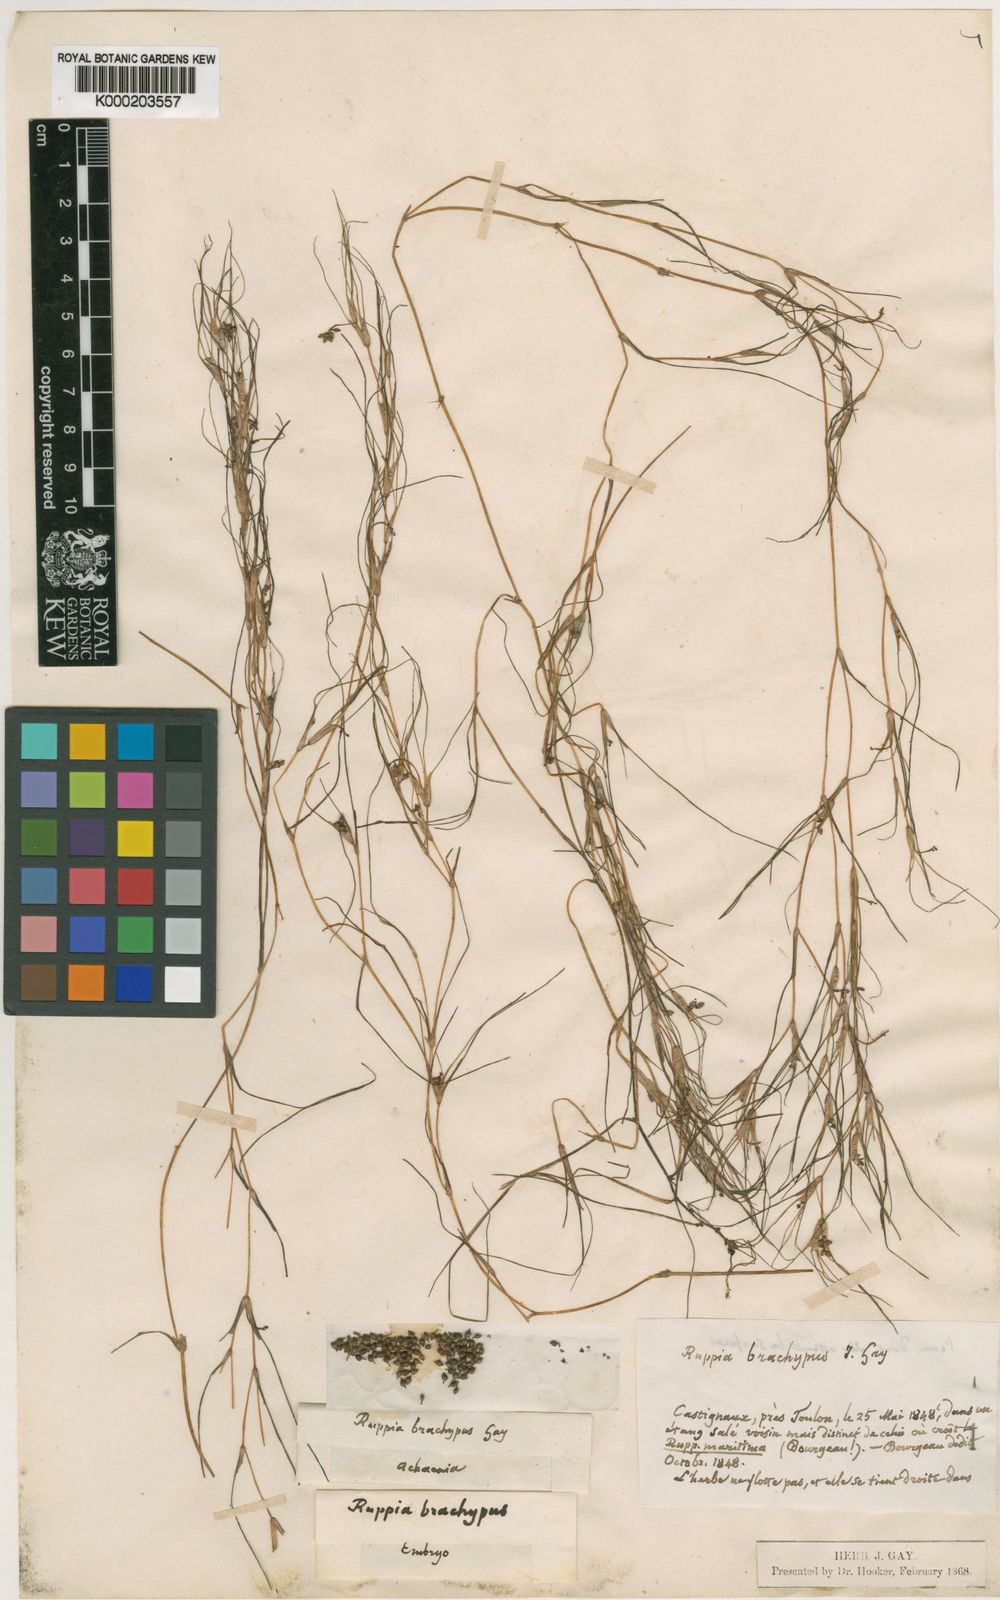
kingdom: Plantae
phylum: Tracheophyta
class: Liliopsida
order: Alismatales
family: Ruppiaceae
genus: Ruppia
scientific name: Ruppia maritima
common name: Beaked tasselweed
